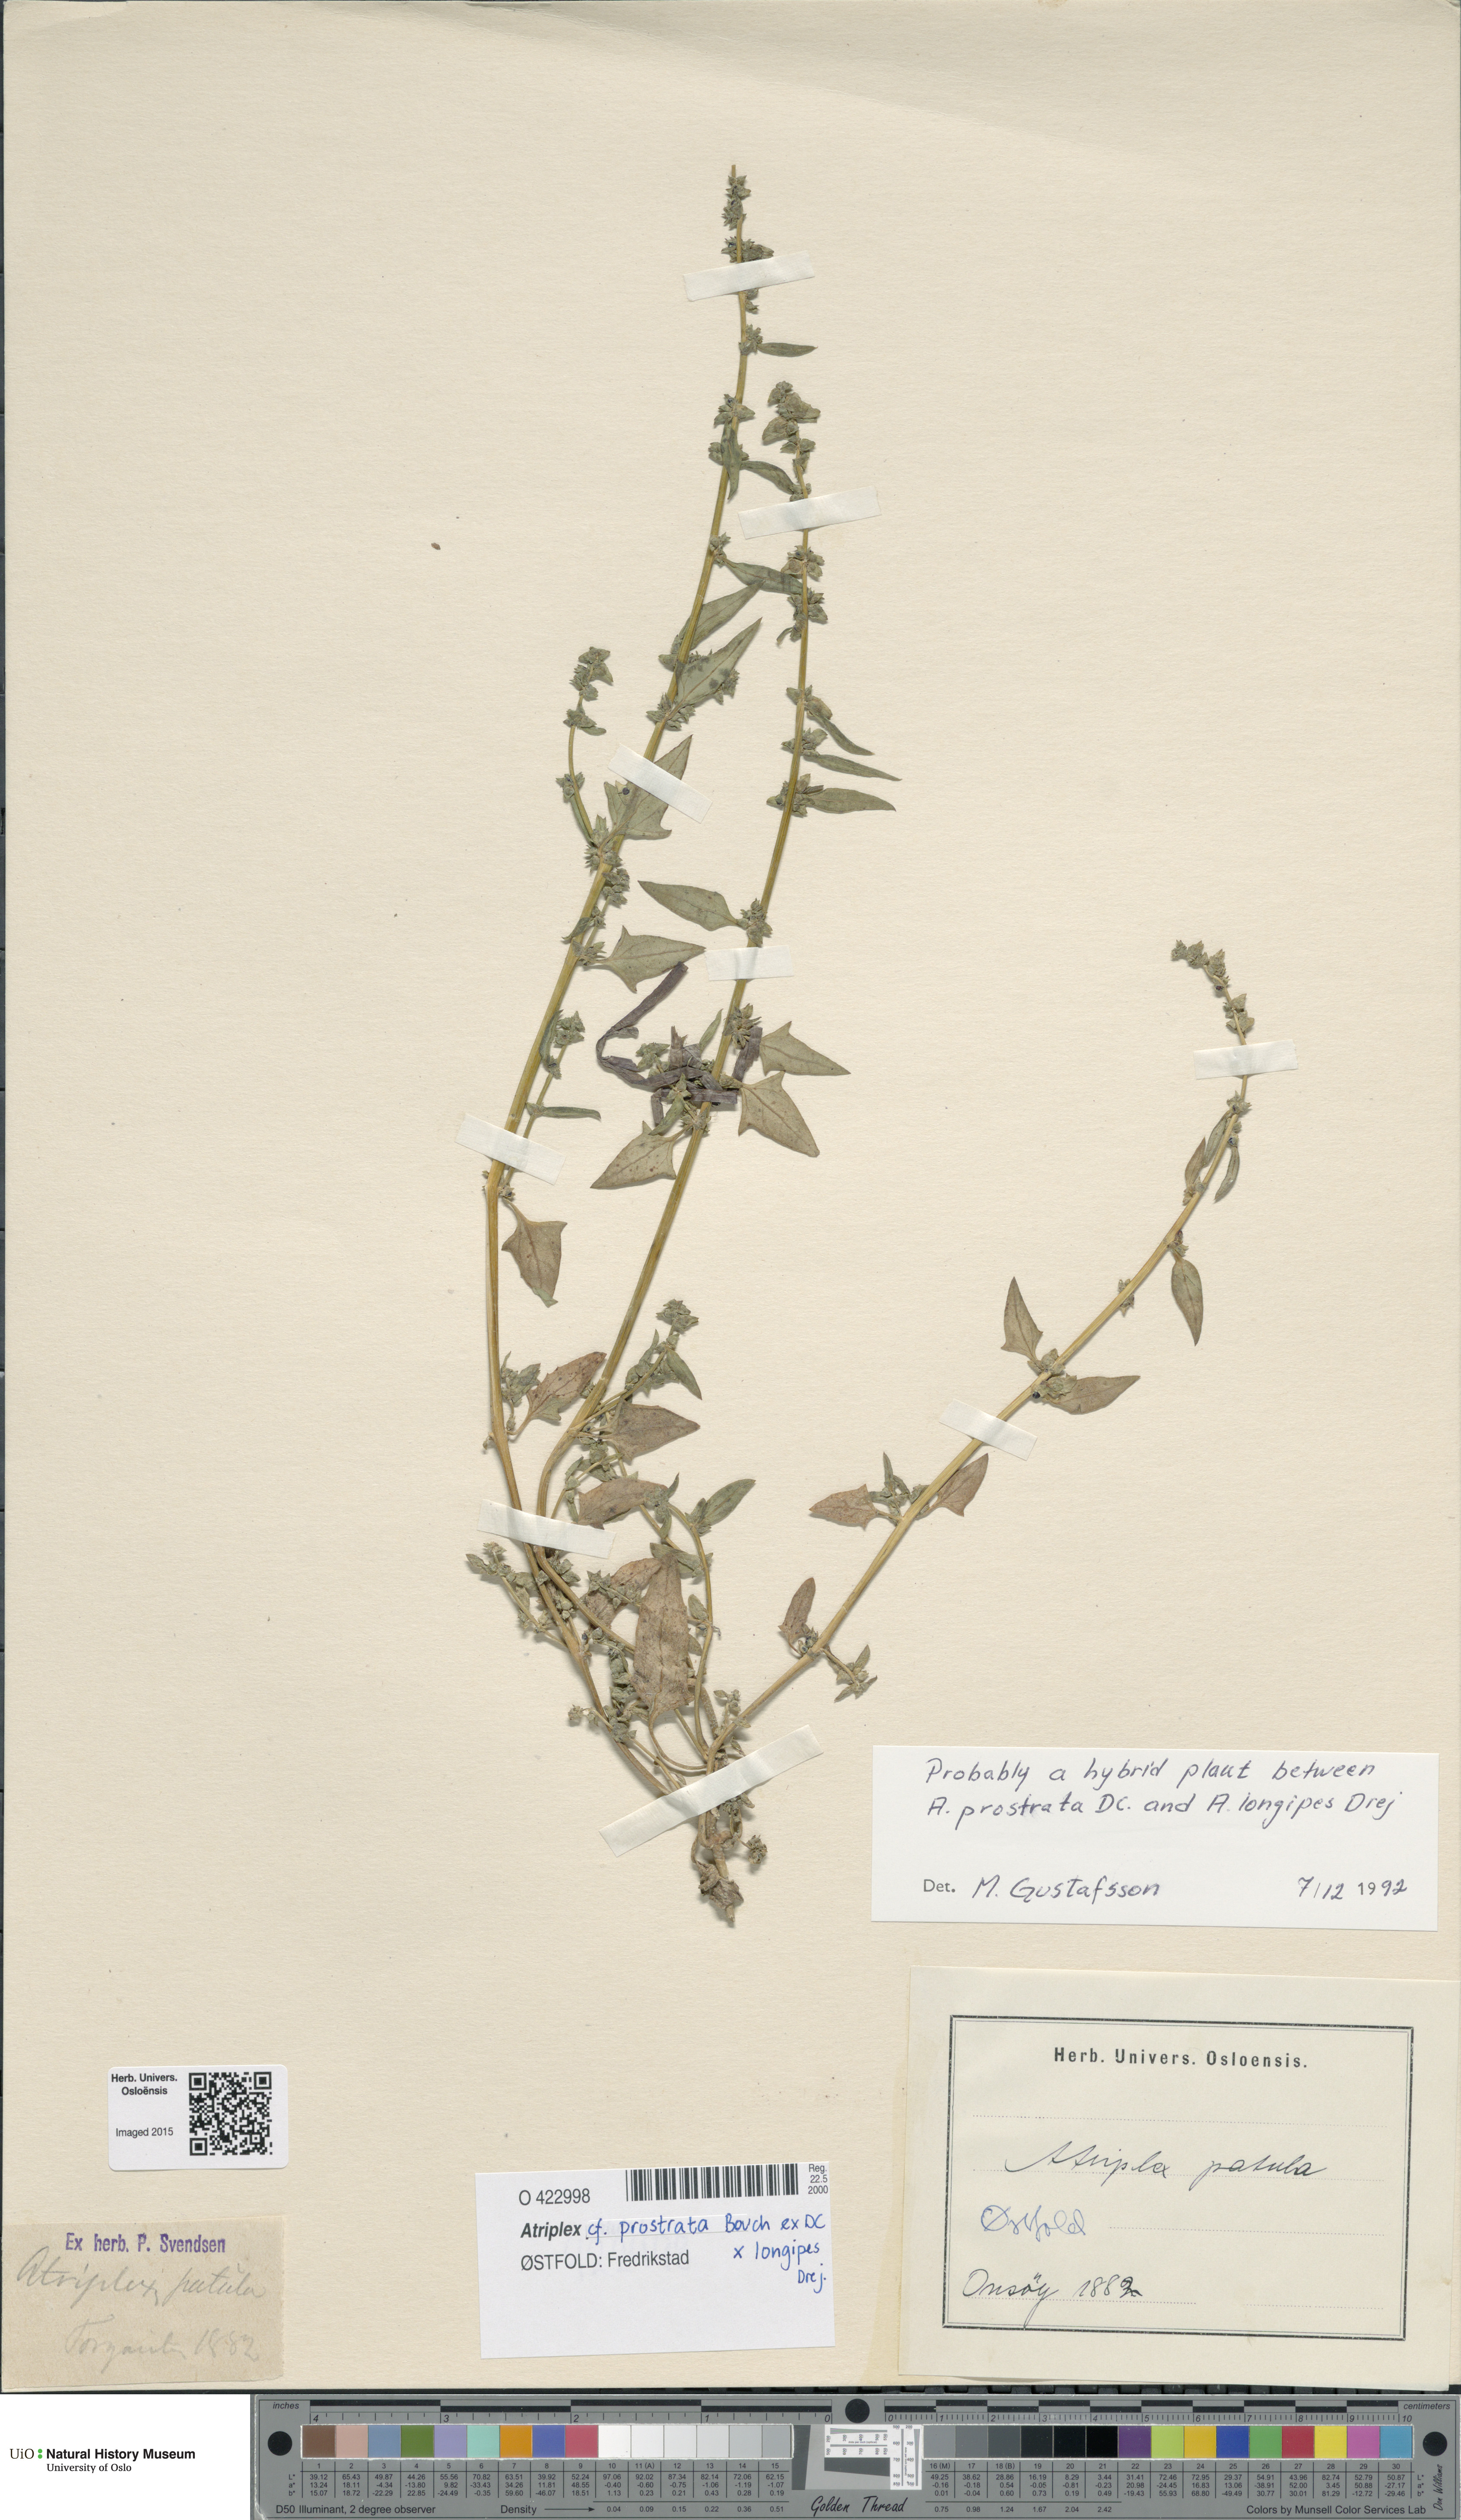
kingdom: Plantae
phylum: Tracheophyta
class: Magnoliopsida
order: Caryophyllales
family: Amaranthaceae
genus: Atriplex
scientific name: Atriplex
